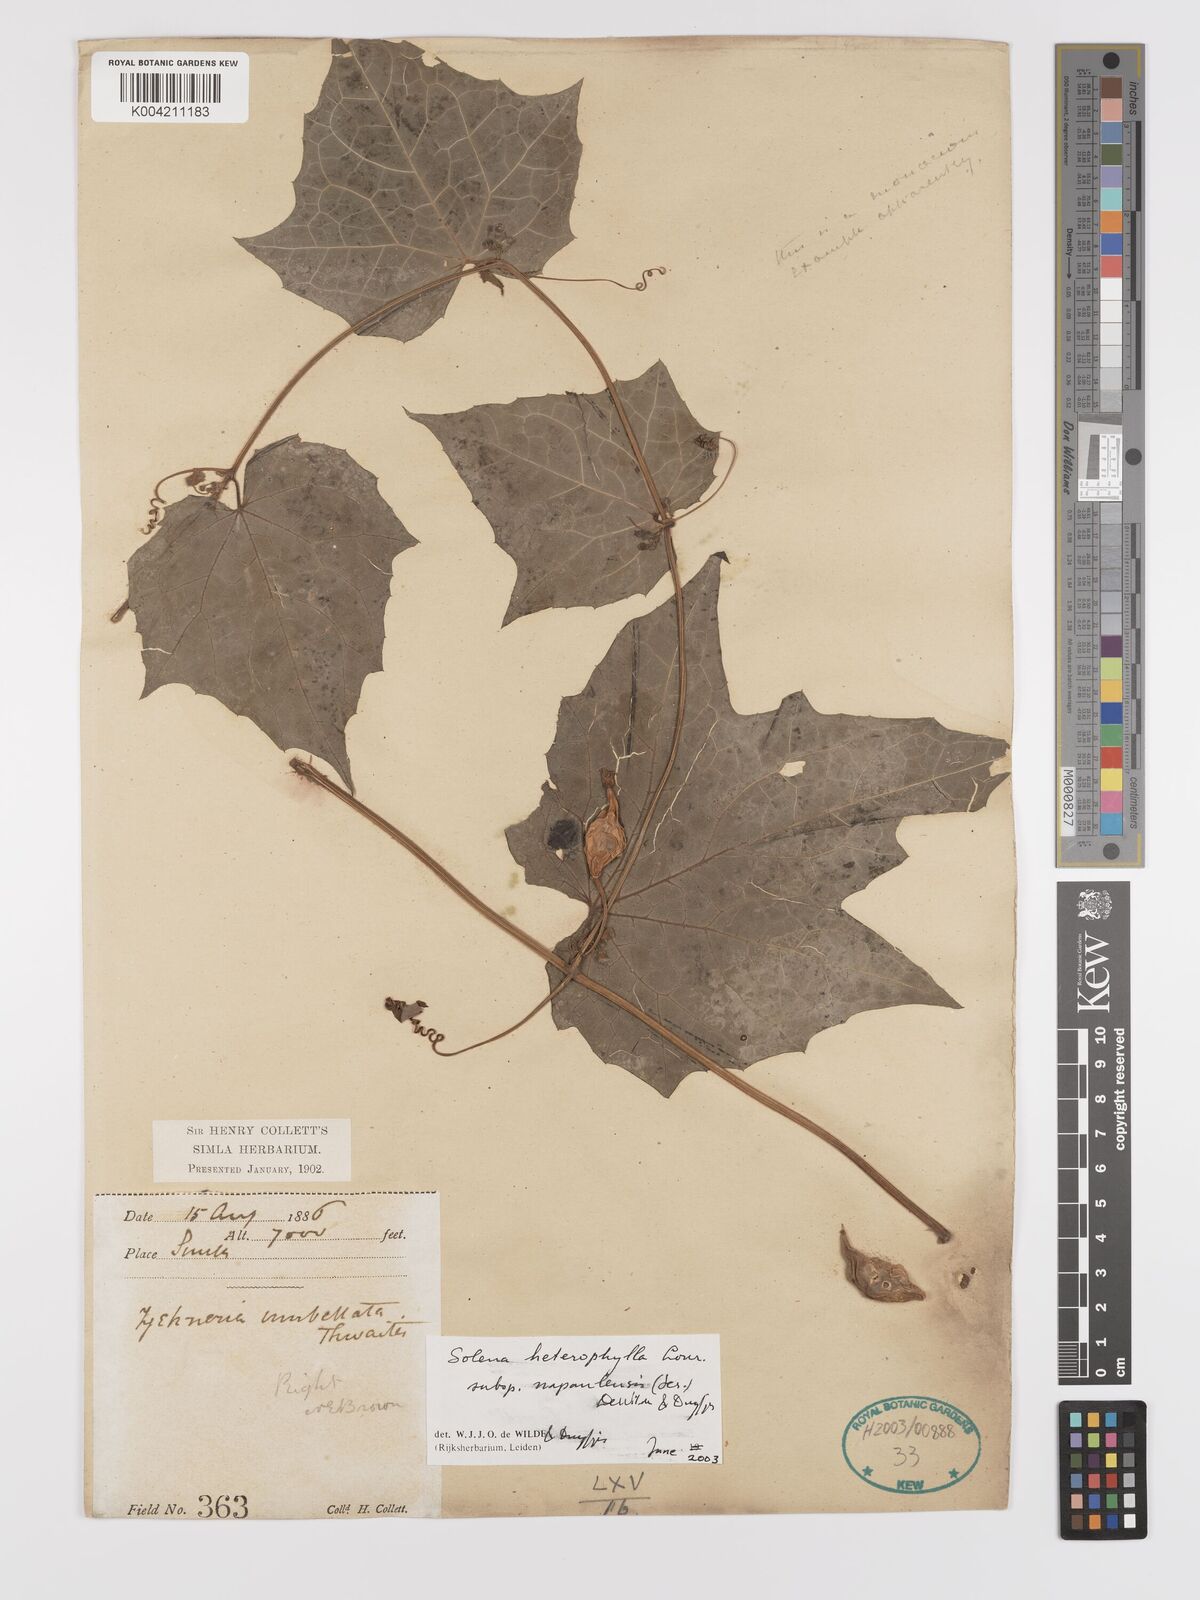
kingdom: Plantae
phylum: Tracheophyta
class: Magnoliopsida
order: Cucurbitales
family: Cucurbitaceae
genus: Solena
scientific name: Solena heterophylla
